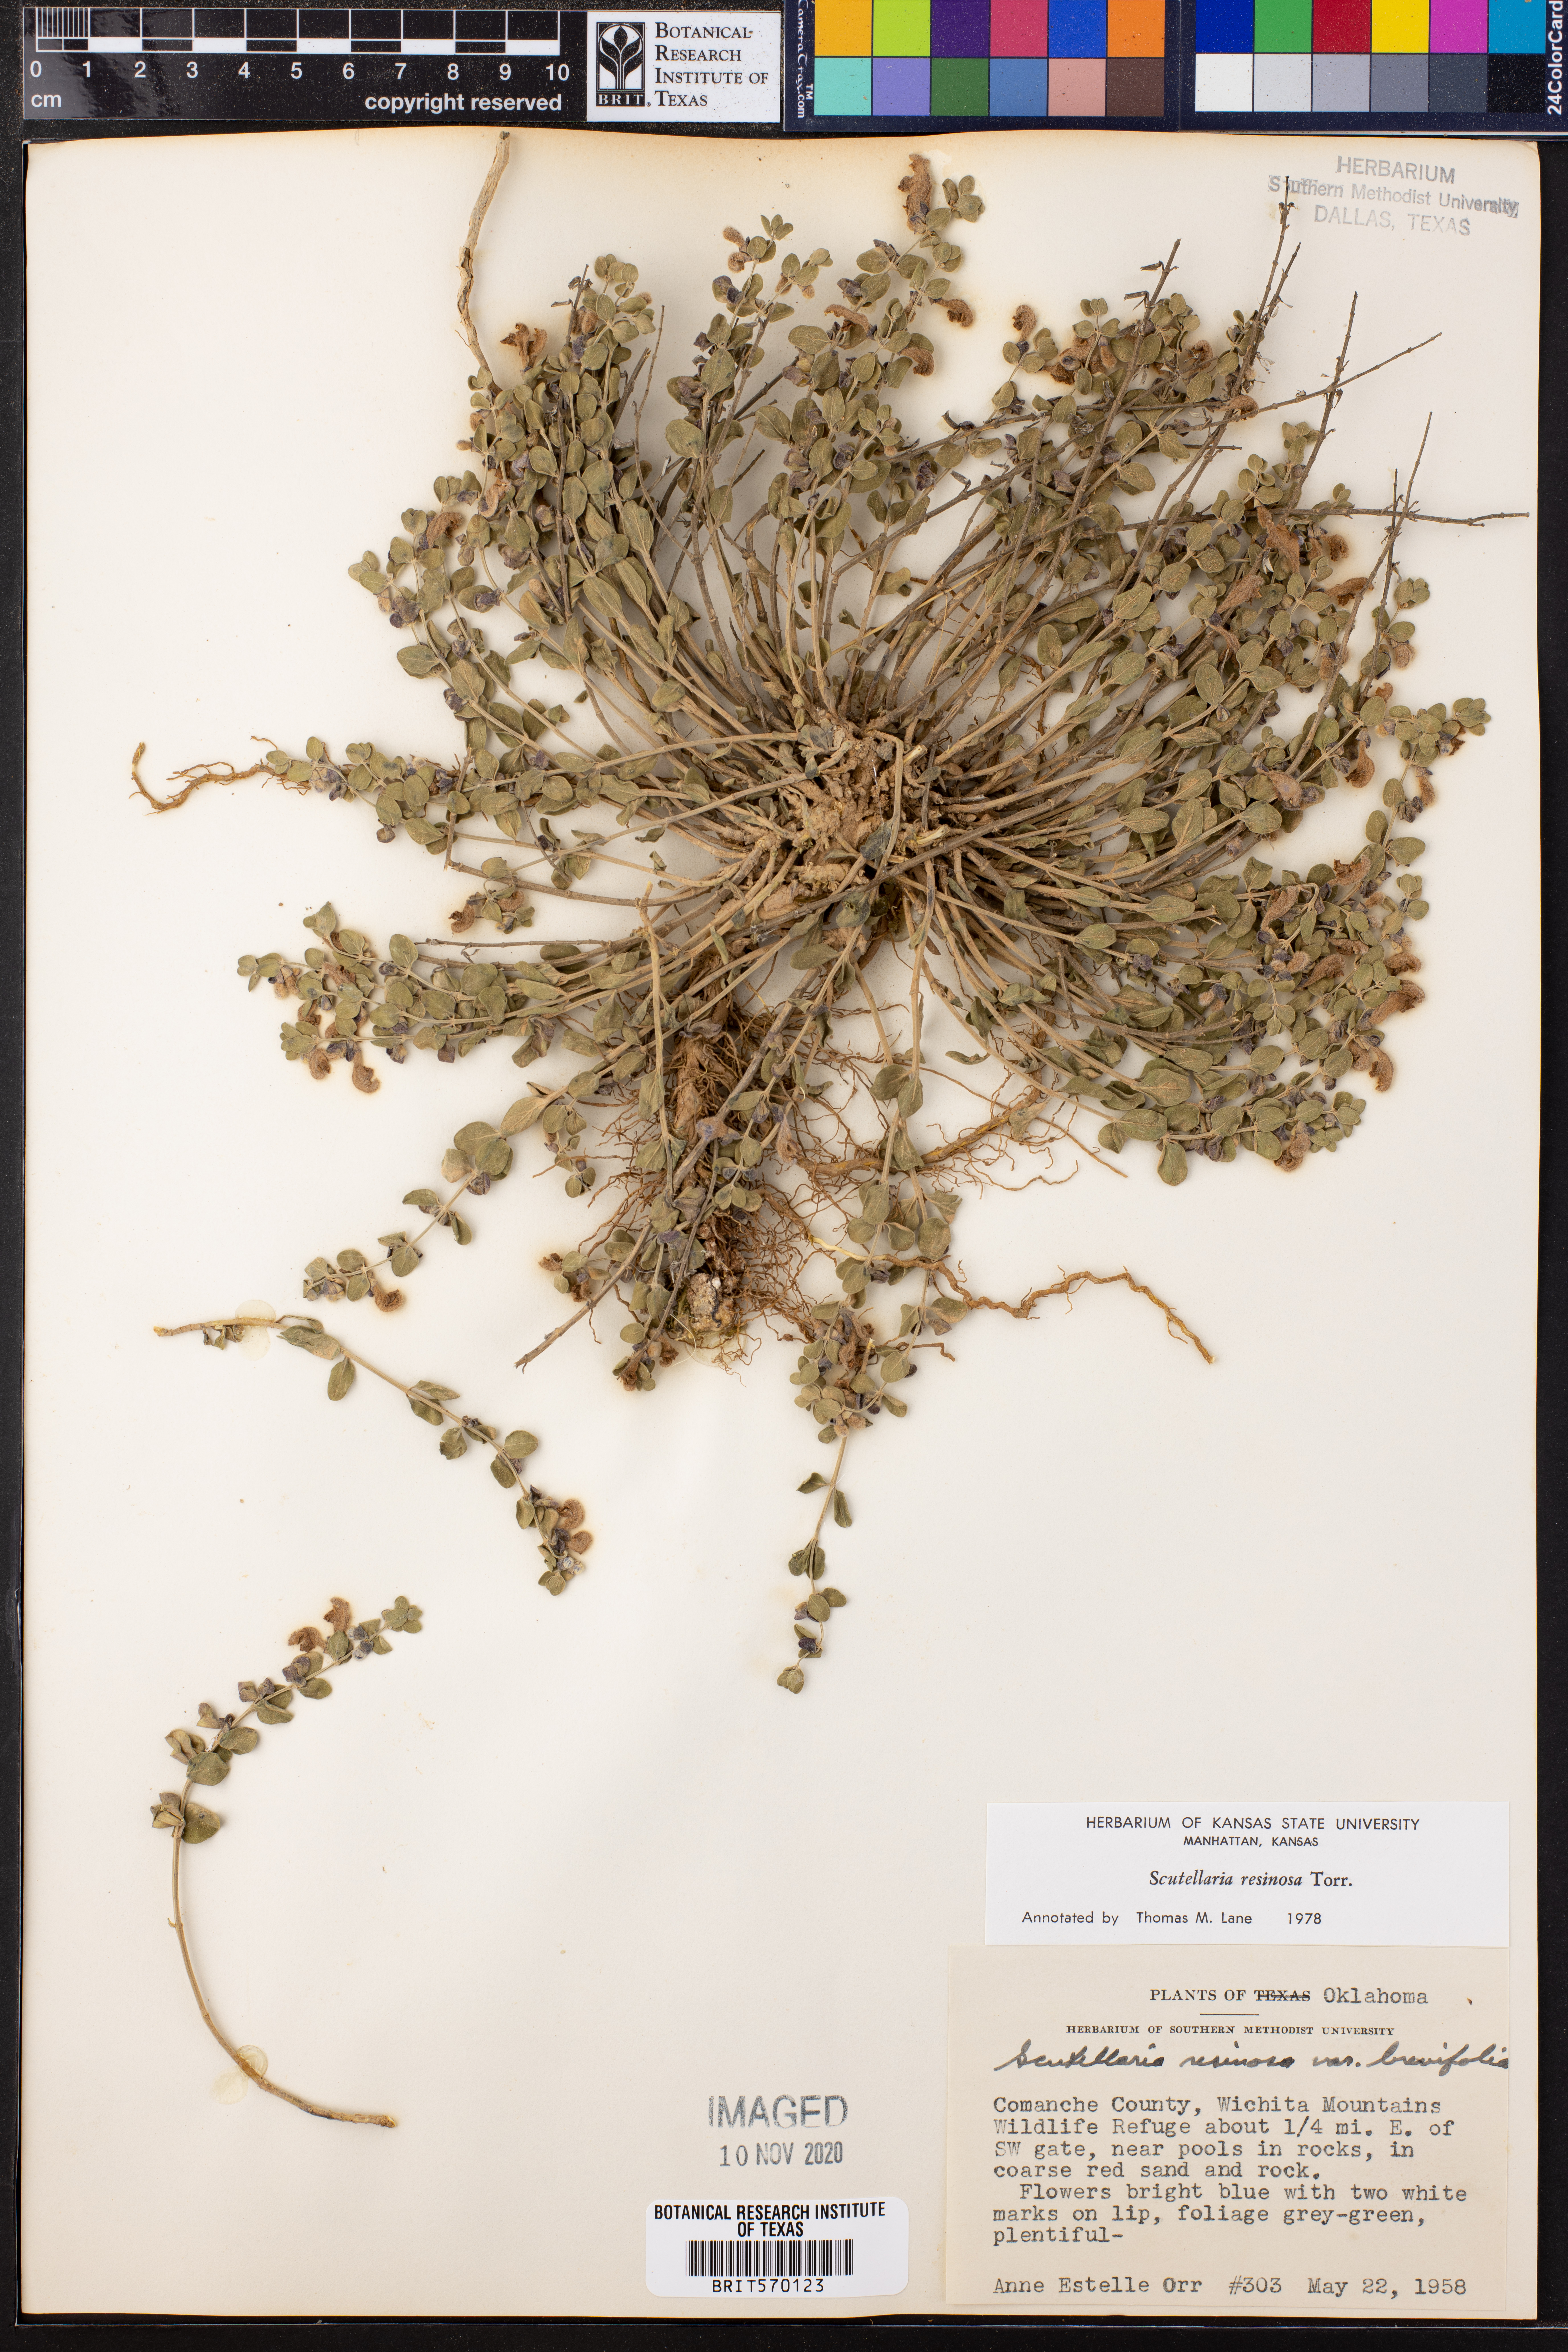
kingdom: Plantae
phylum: Tracheophyta
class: Magnoliopsida
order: Lamiales
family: Lamiaceae
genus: Scutellaria
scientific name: Scutellaria resinosa
